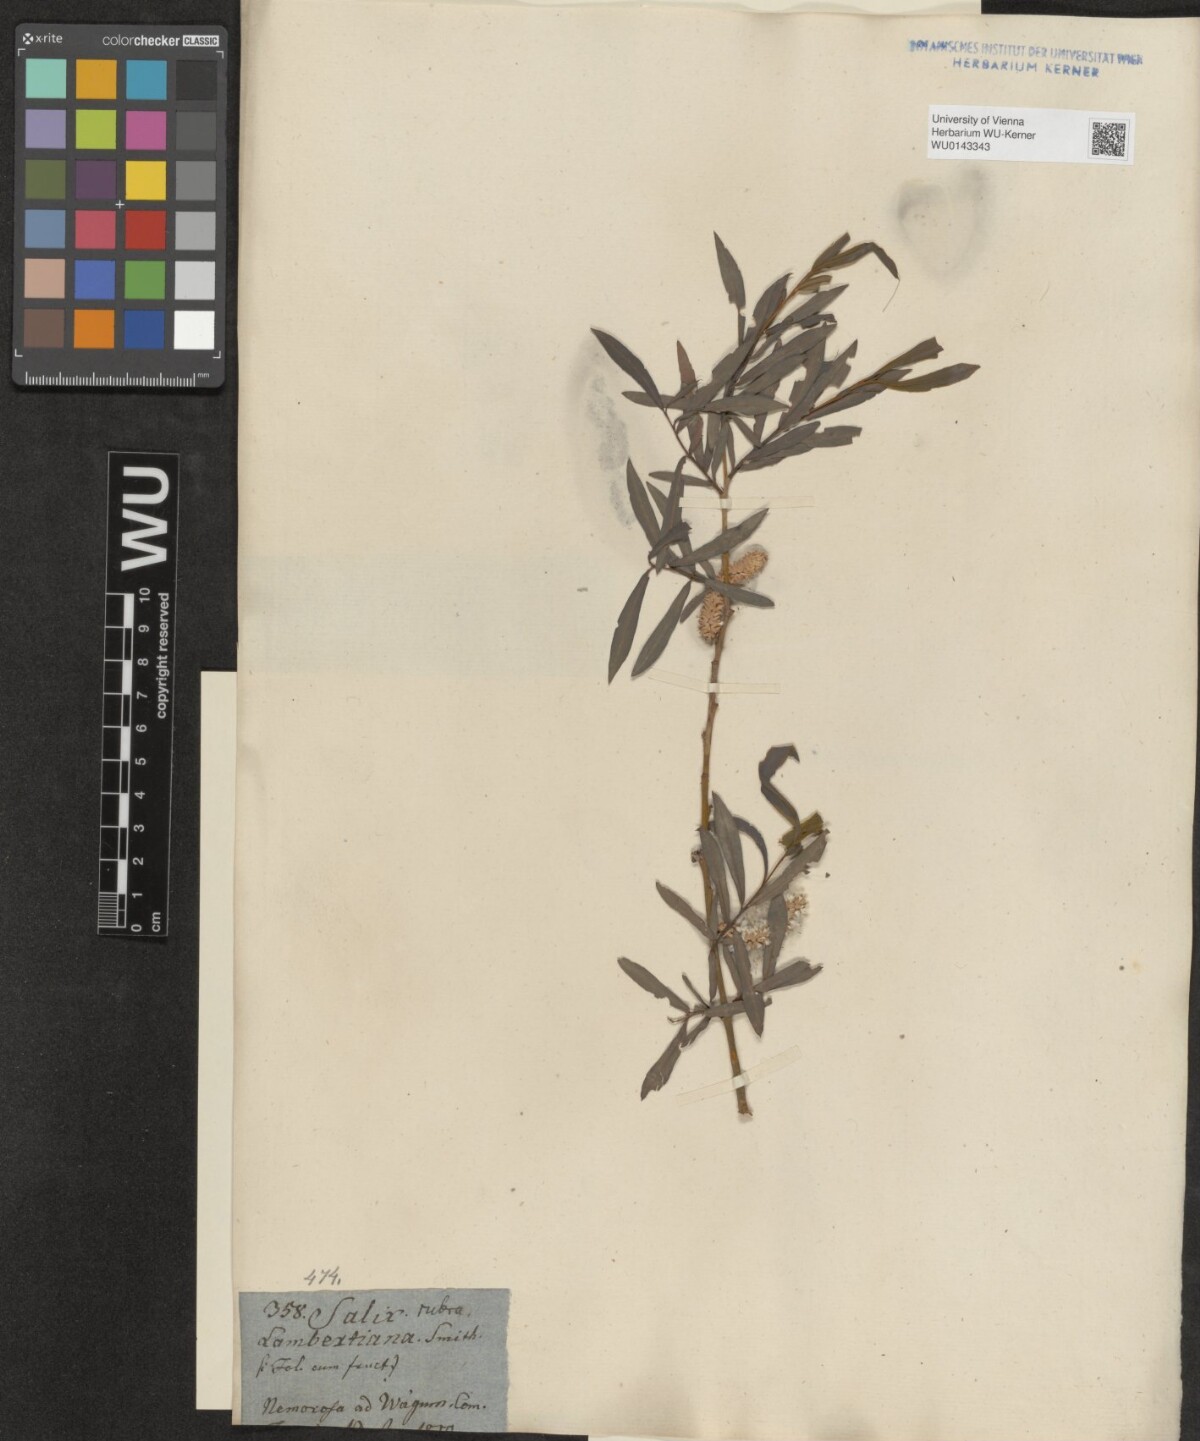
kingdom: Plantae
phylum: Tracheophyta
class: Magnoliopsida
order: Malpighiales
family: Salicaceae
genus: Salix
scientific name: Salix purpurea
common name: Purple willow
